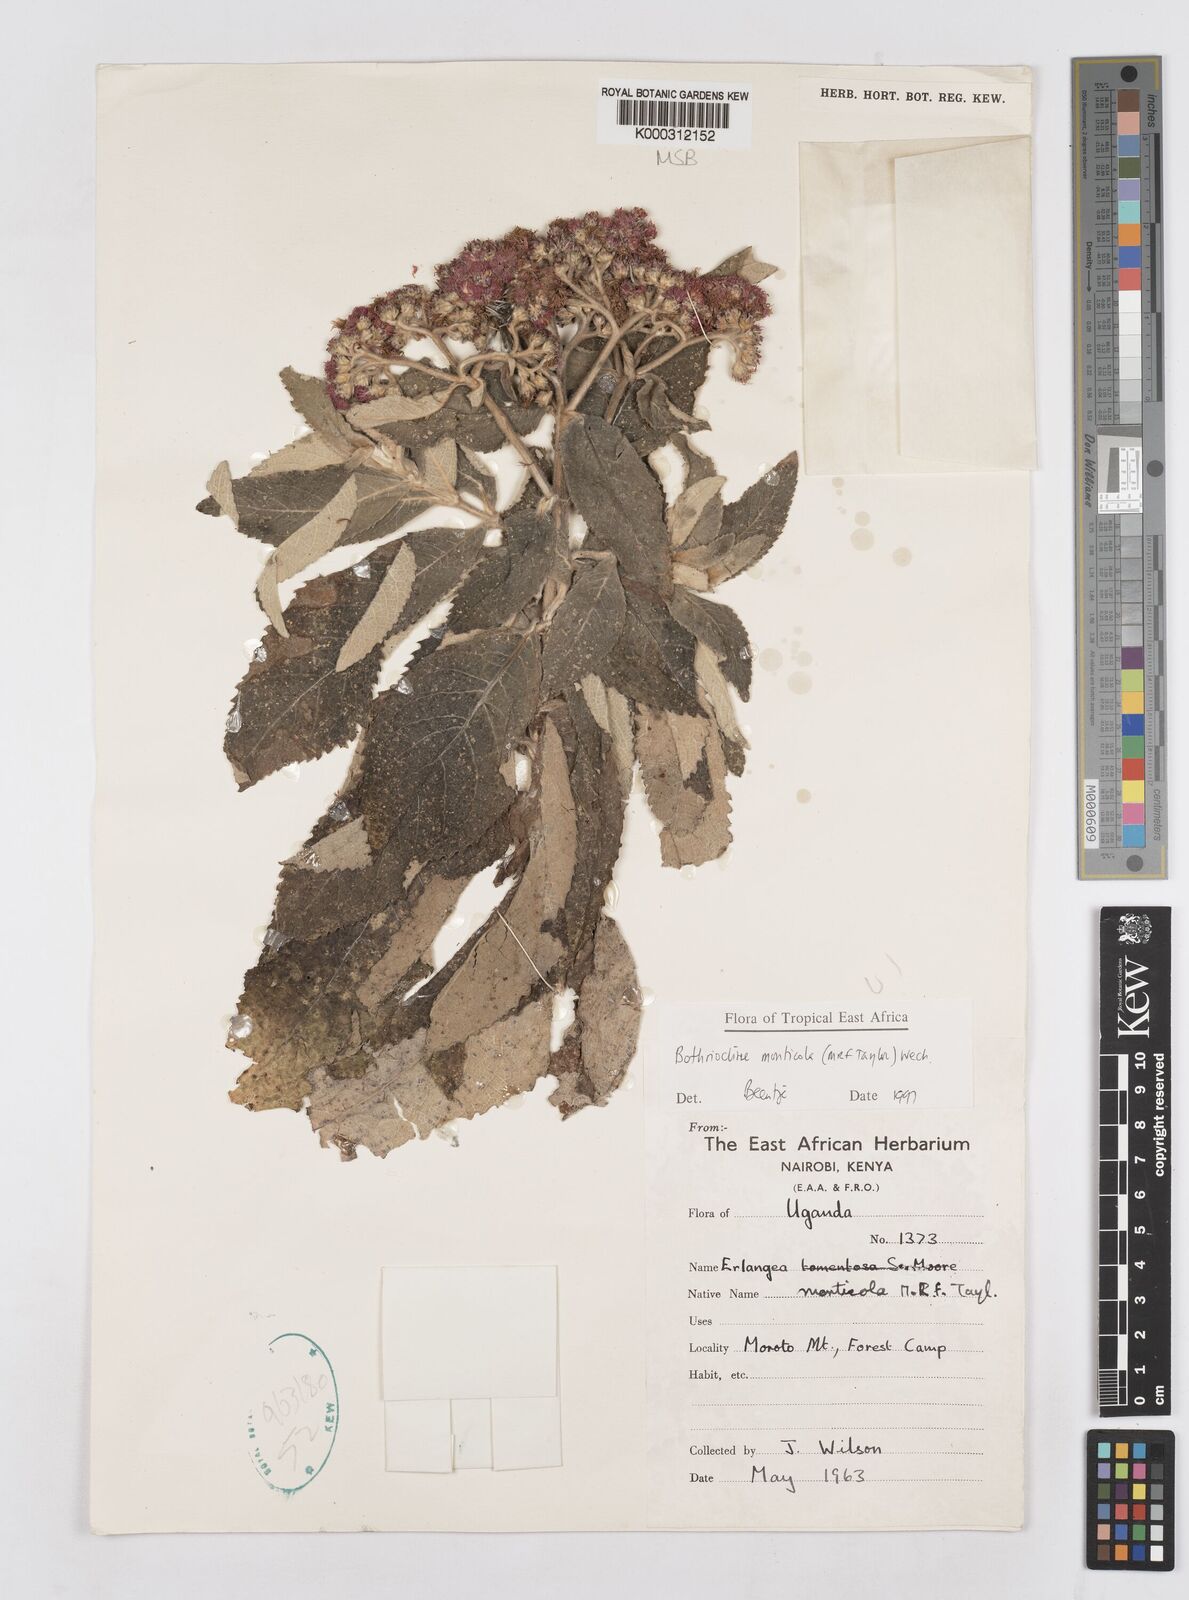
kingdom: Plantae
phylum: Tracheophyta
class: Magnoliopsida
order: Asterales
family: Asteraceae
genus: Bothriocline
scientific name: Bothriocline monticola
